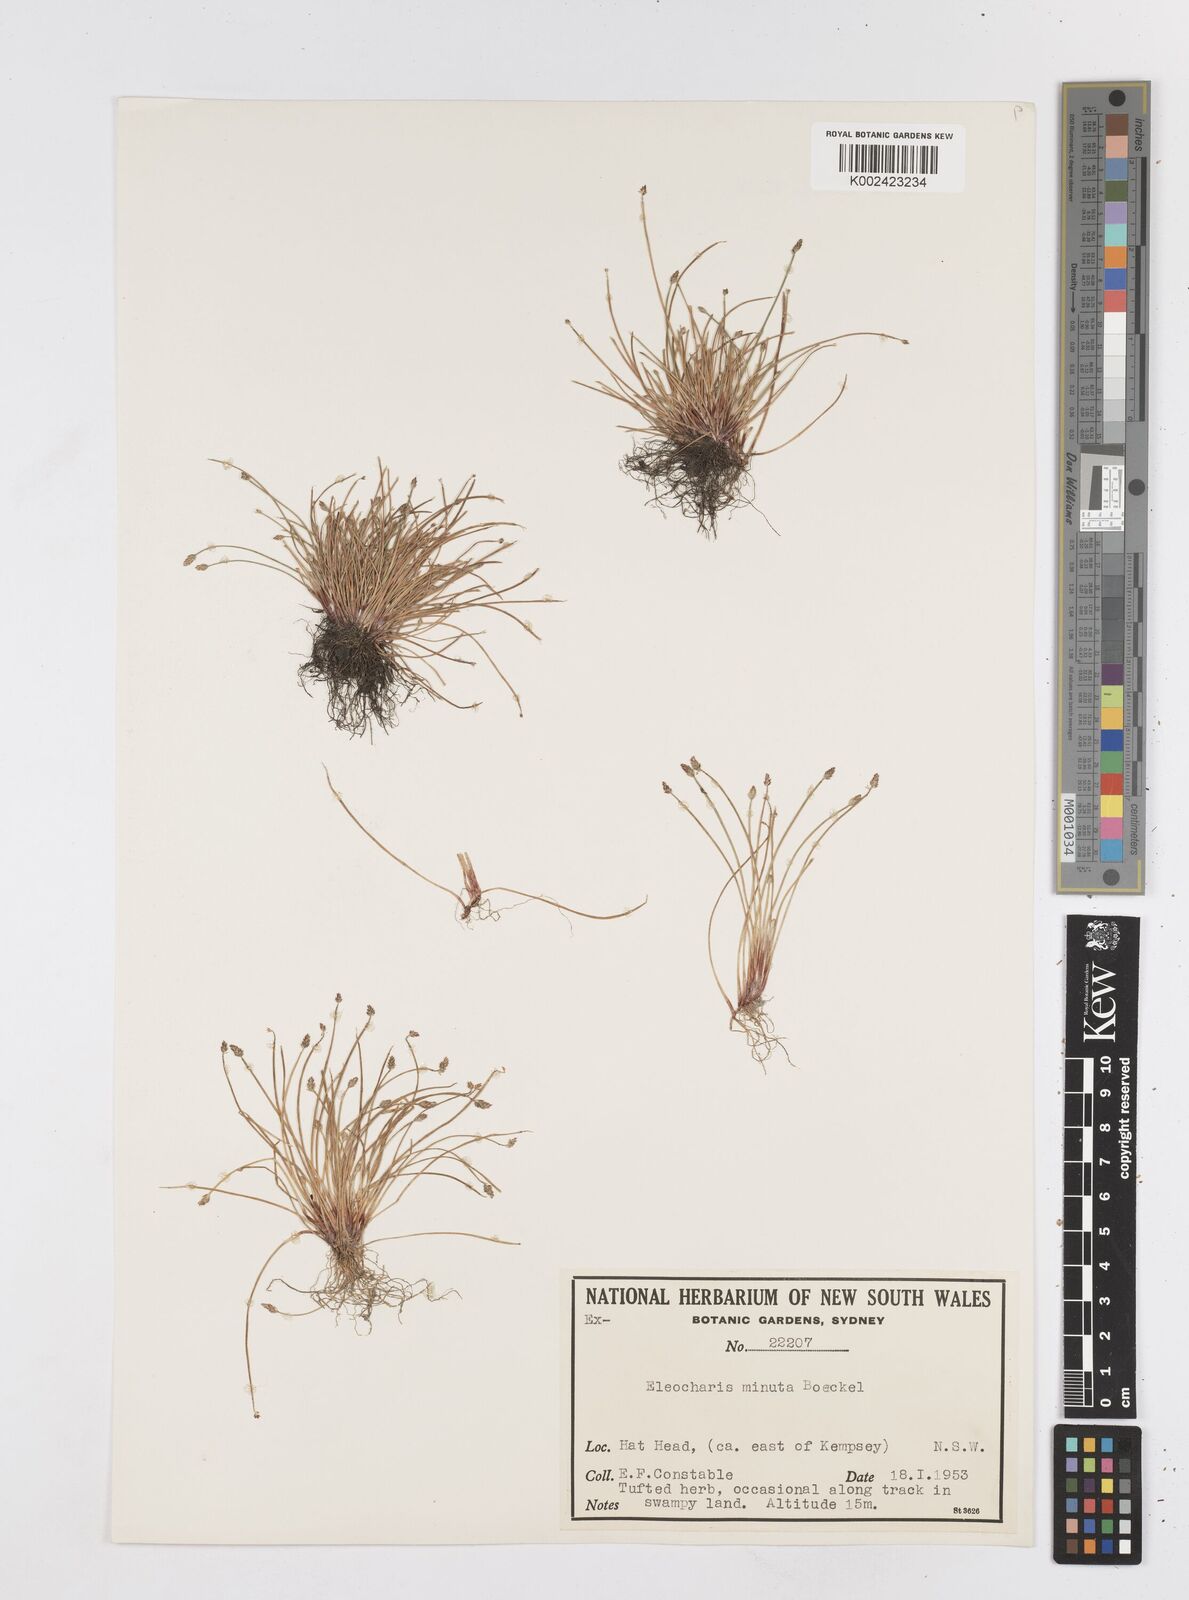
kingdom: Plantae
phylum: Tracheophyta
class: Liliopsida
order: Poales
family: Cyperaceae
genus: Eleocharis
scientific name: Eleocharis minuta
